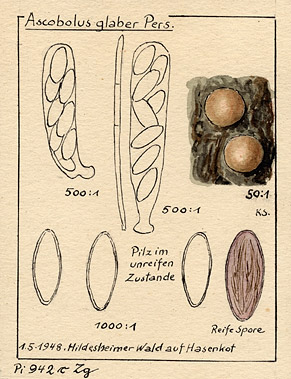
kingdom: Fungi
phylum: Ascomycota
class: Pezizomycetes
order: Pezizales
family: Ascobolaceae
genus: Saccobolus
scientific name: Saccobolus glaber
